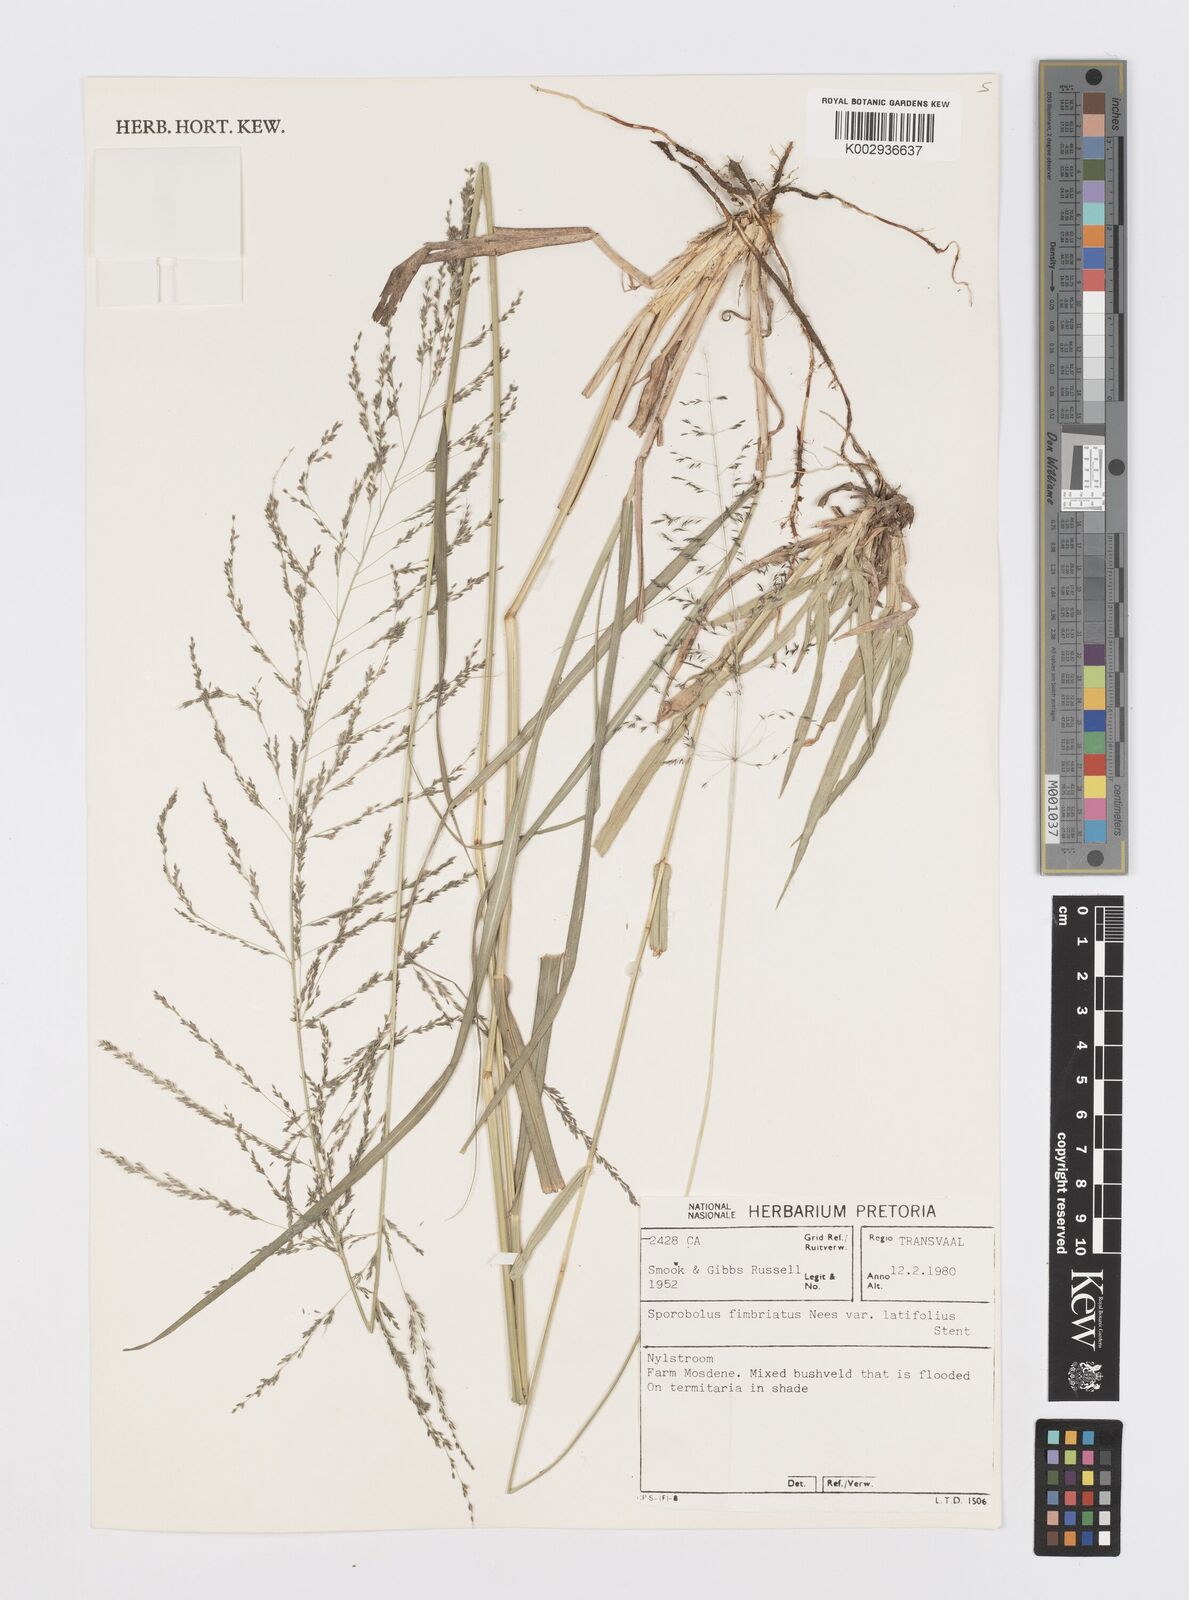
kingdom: Plantae
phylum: Tracheophyta
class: Liliopsida
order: Poales
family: Poaceae
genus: Sporobolus
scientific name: Sporobolus fimbriatus
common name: Fringed dropseed
